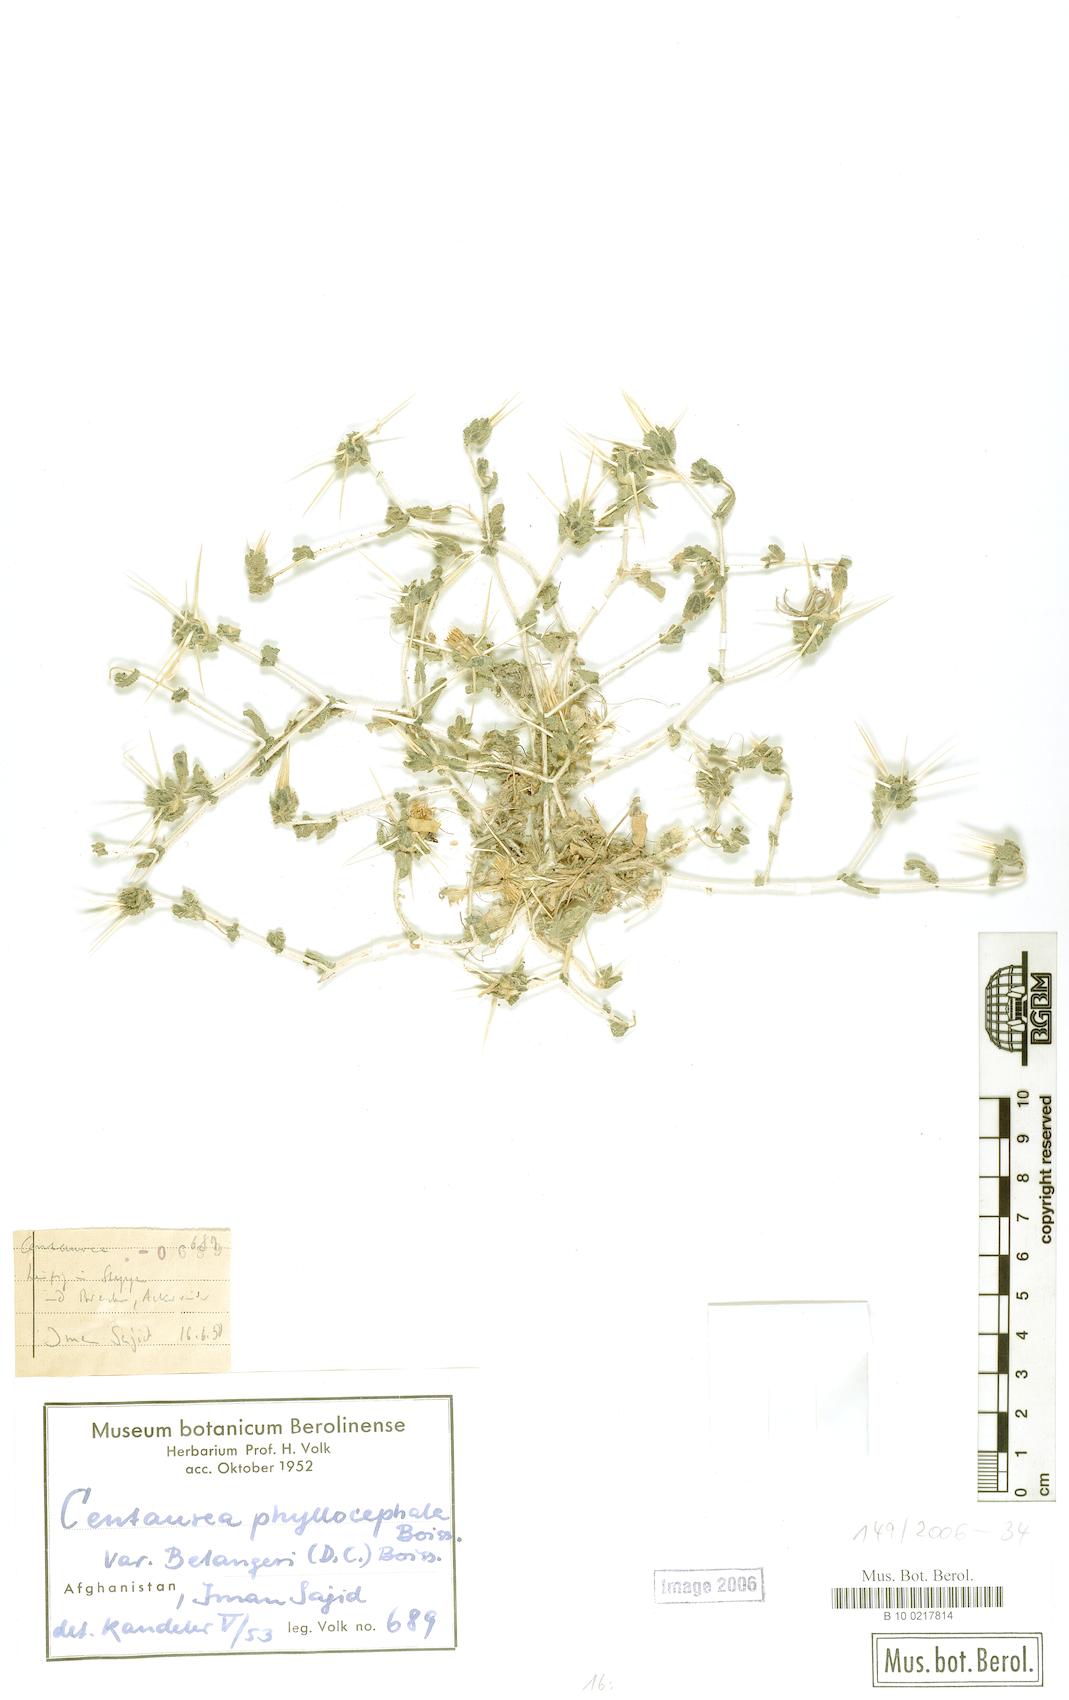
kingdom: Plantae
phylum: Tracheophyta
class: Magnoliopsida
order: Asterales
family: Asteraceae
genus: Centaurea
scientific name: Centaurea bruguierana
